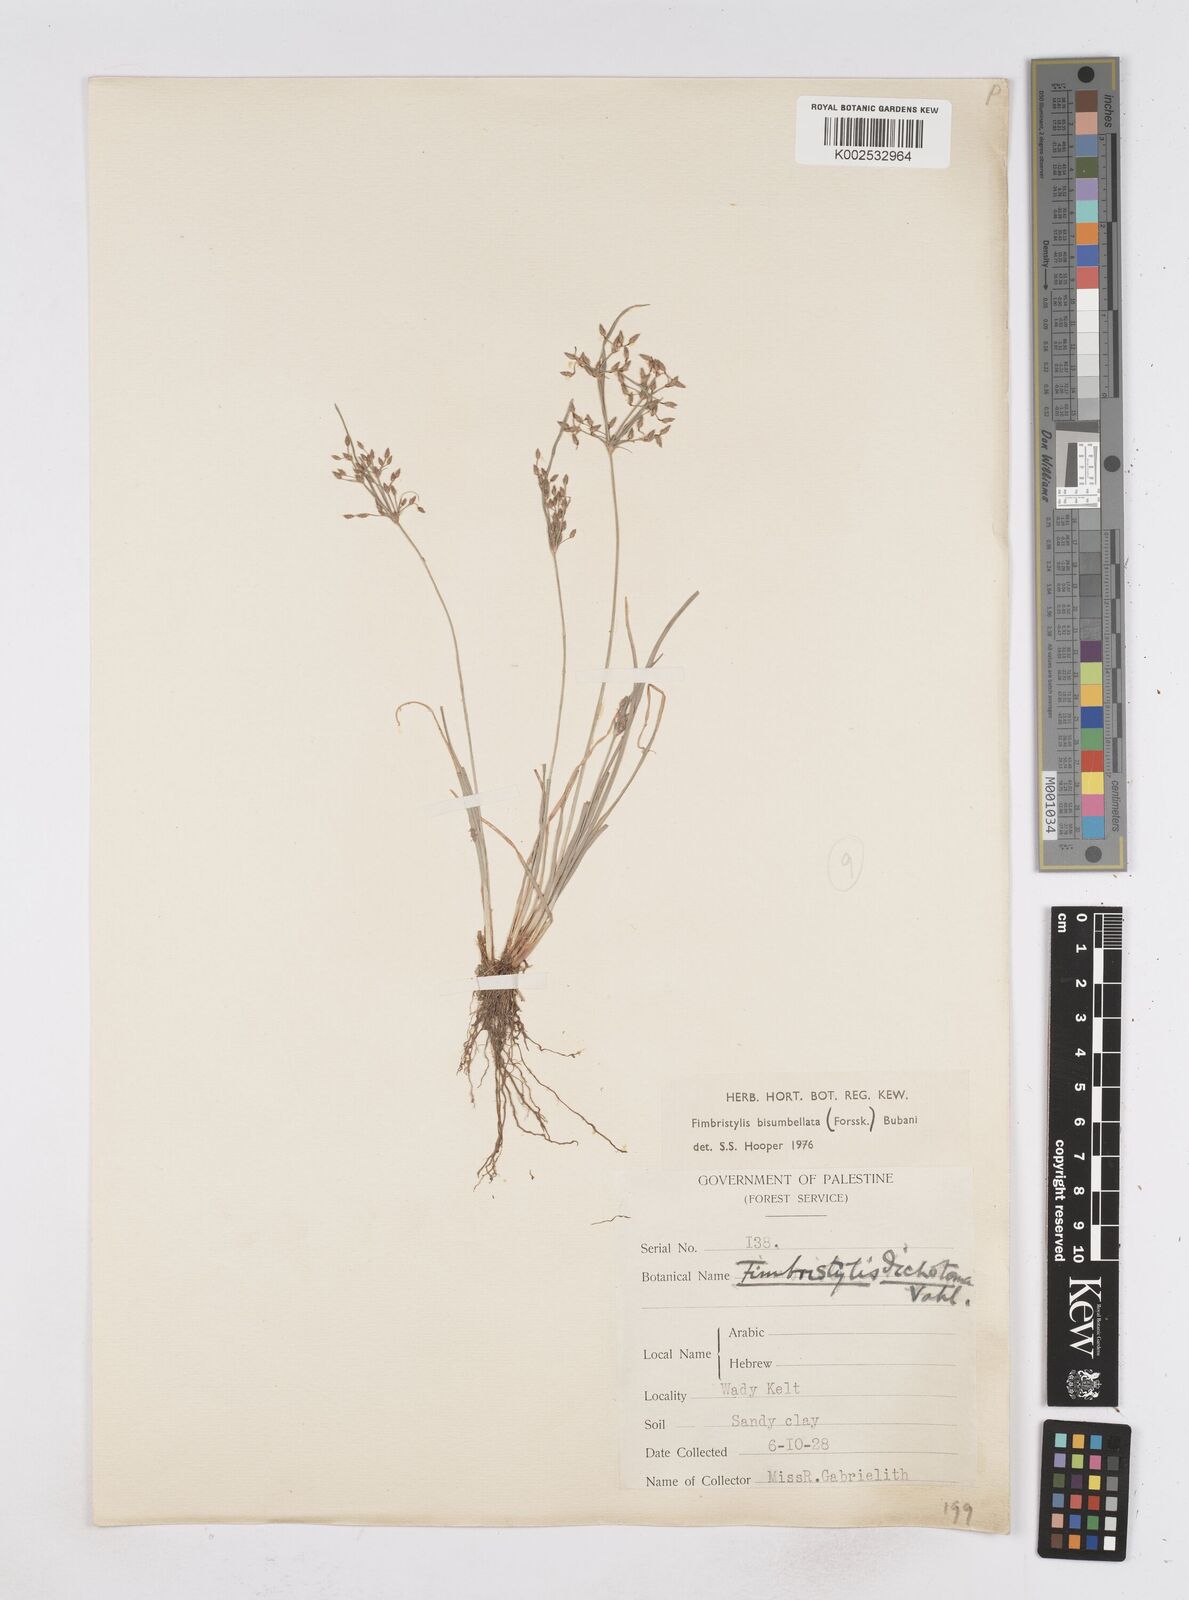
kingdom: Plantae
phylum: Tracheophyta
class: Liliopsida
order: Poales
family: Cyperaceae
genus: Fimbristylis
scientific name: Fimbristylis bisumbellata
